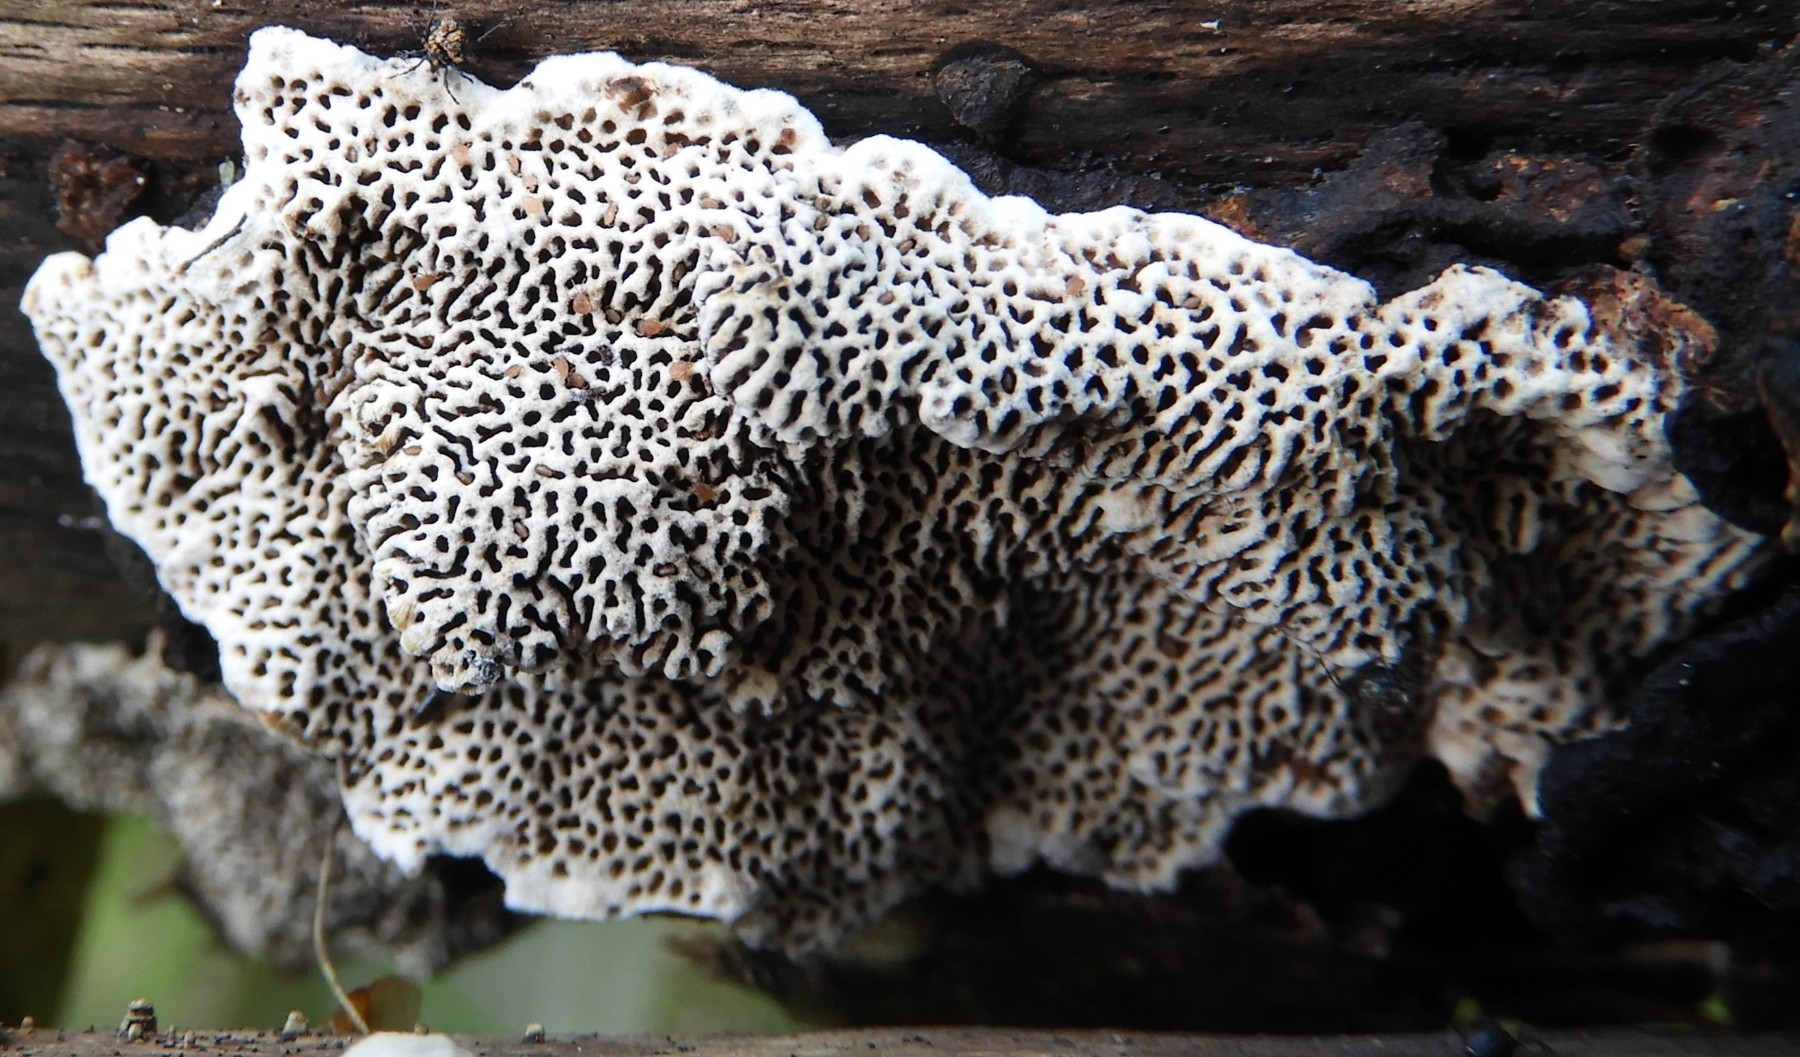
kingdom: Fungi
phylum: Basidiomycota
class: Agaricomycetes
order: Polyporales
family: Polyporaceae
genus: Podofomes
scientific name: Podofomes mollis
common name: blød begporesvamp
